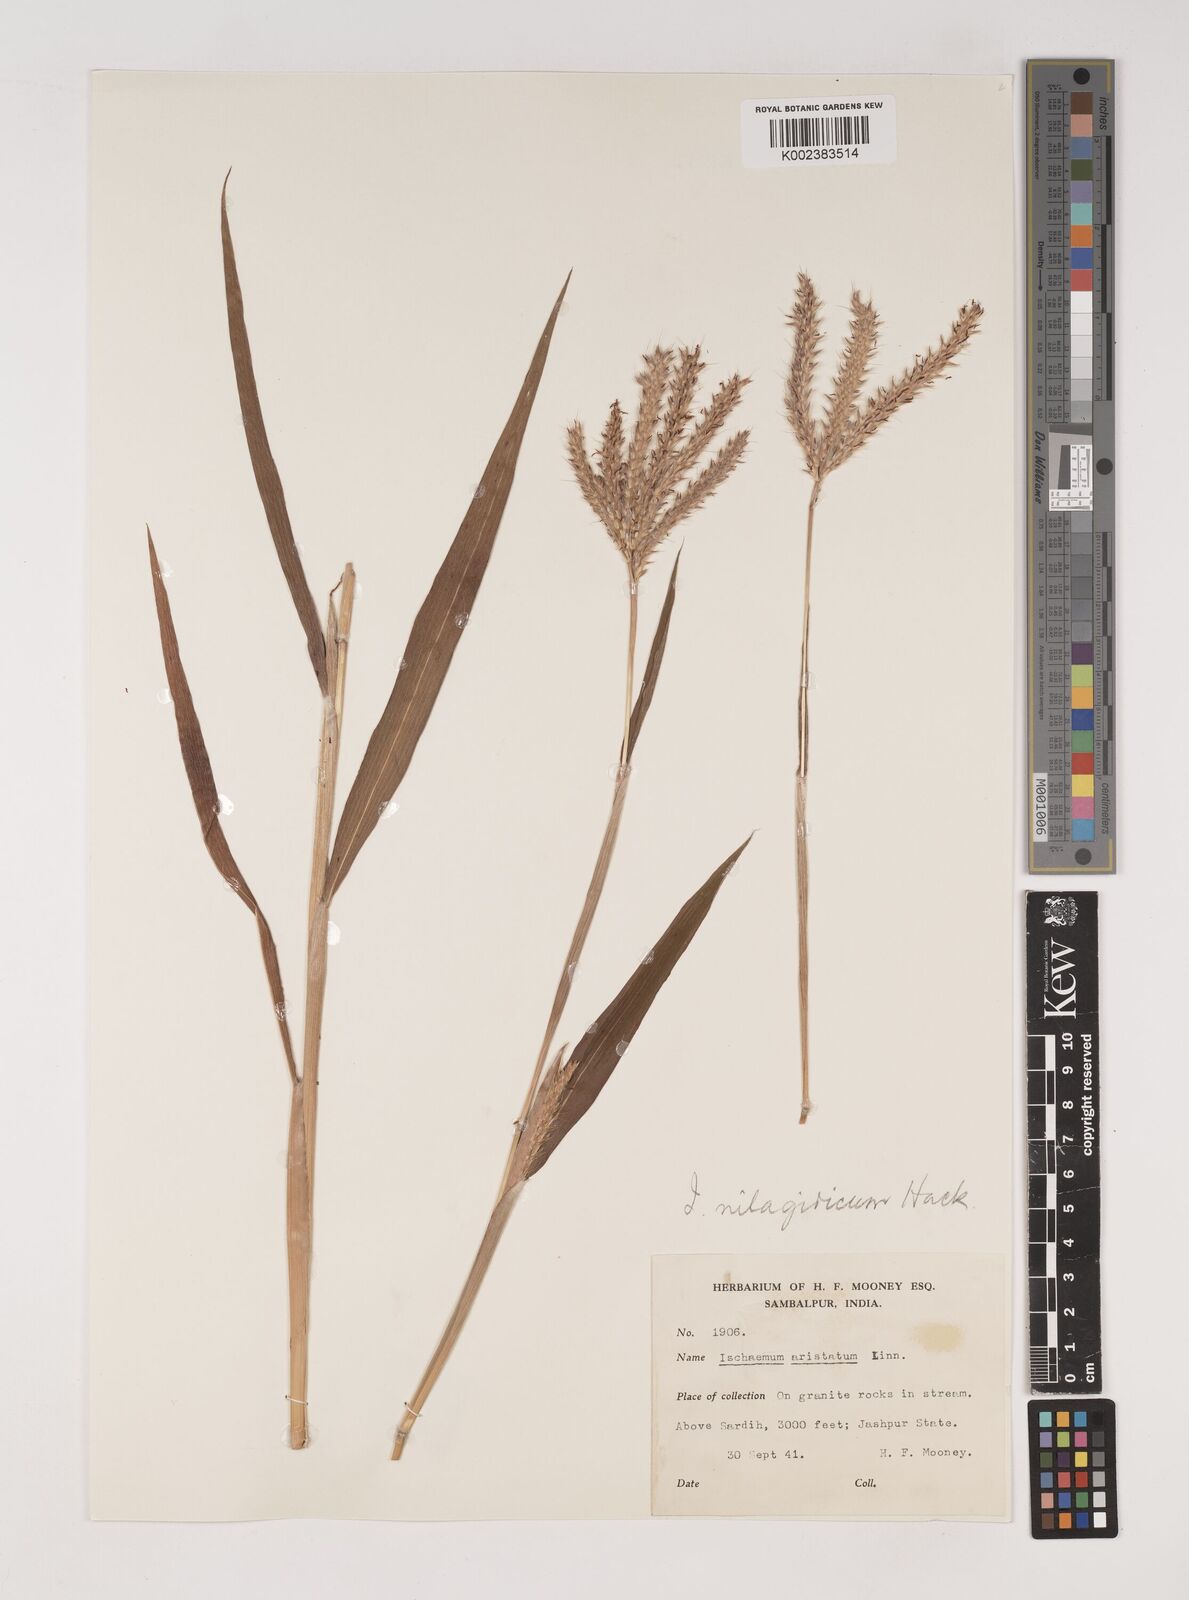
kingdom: Plantae
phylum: Tracheophyta
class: Liliopsida
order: Poales
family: Poaceae
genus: Ischaemum
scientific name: Ischaemum
